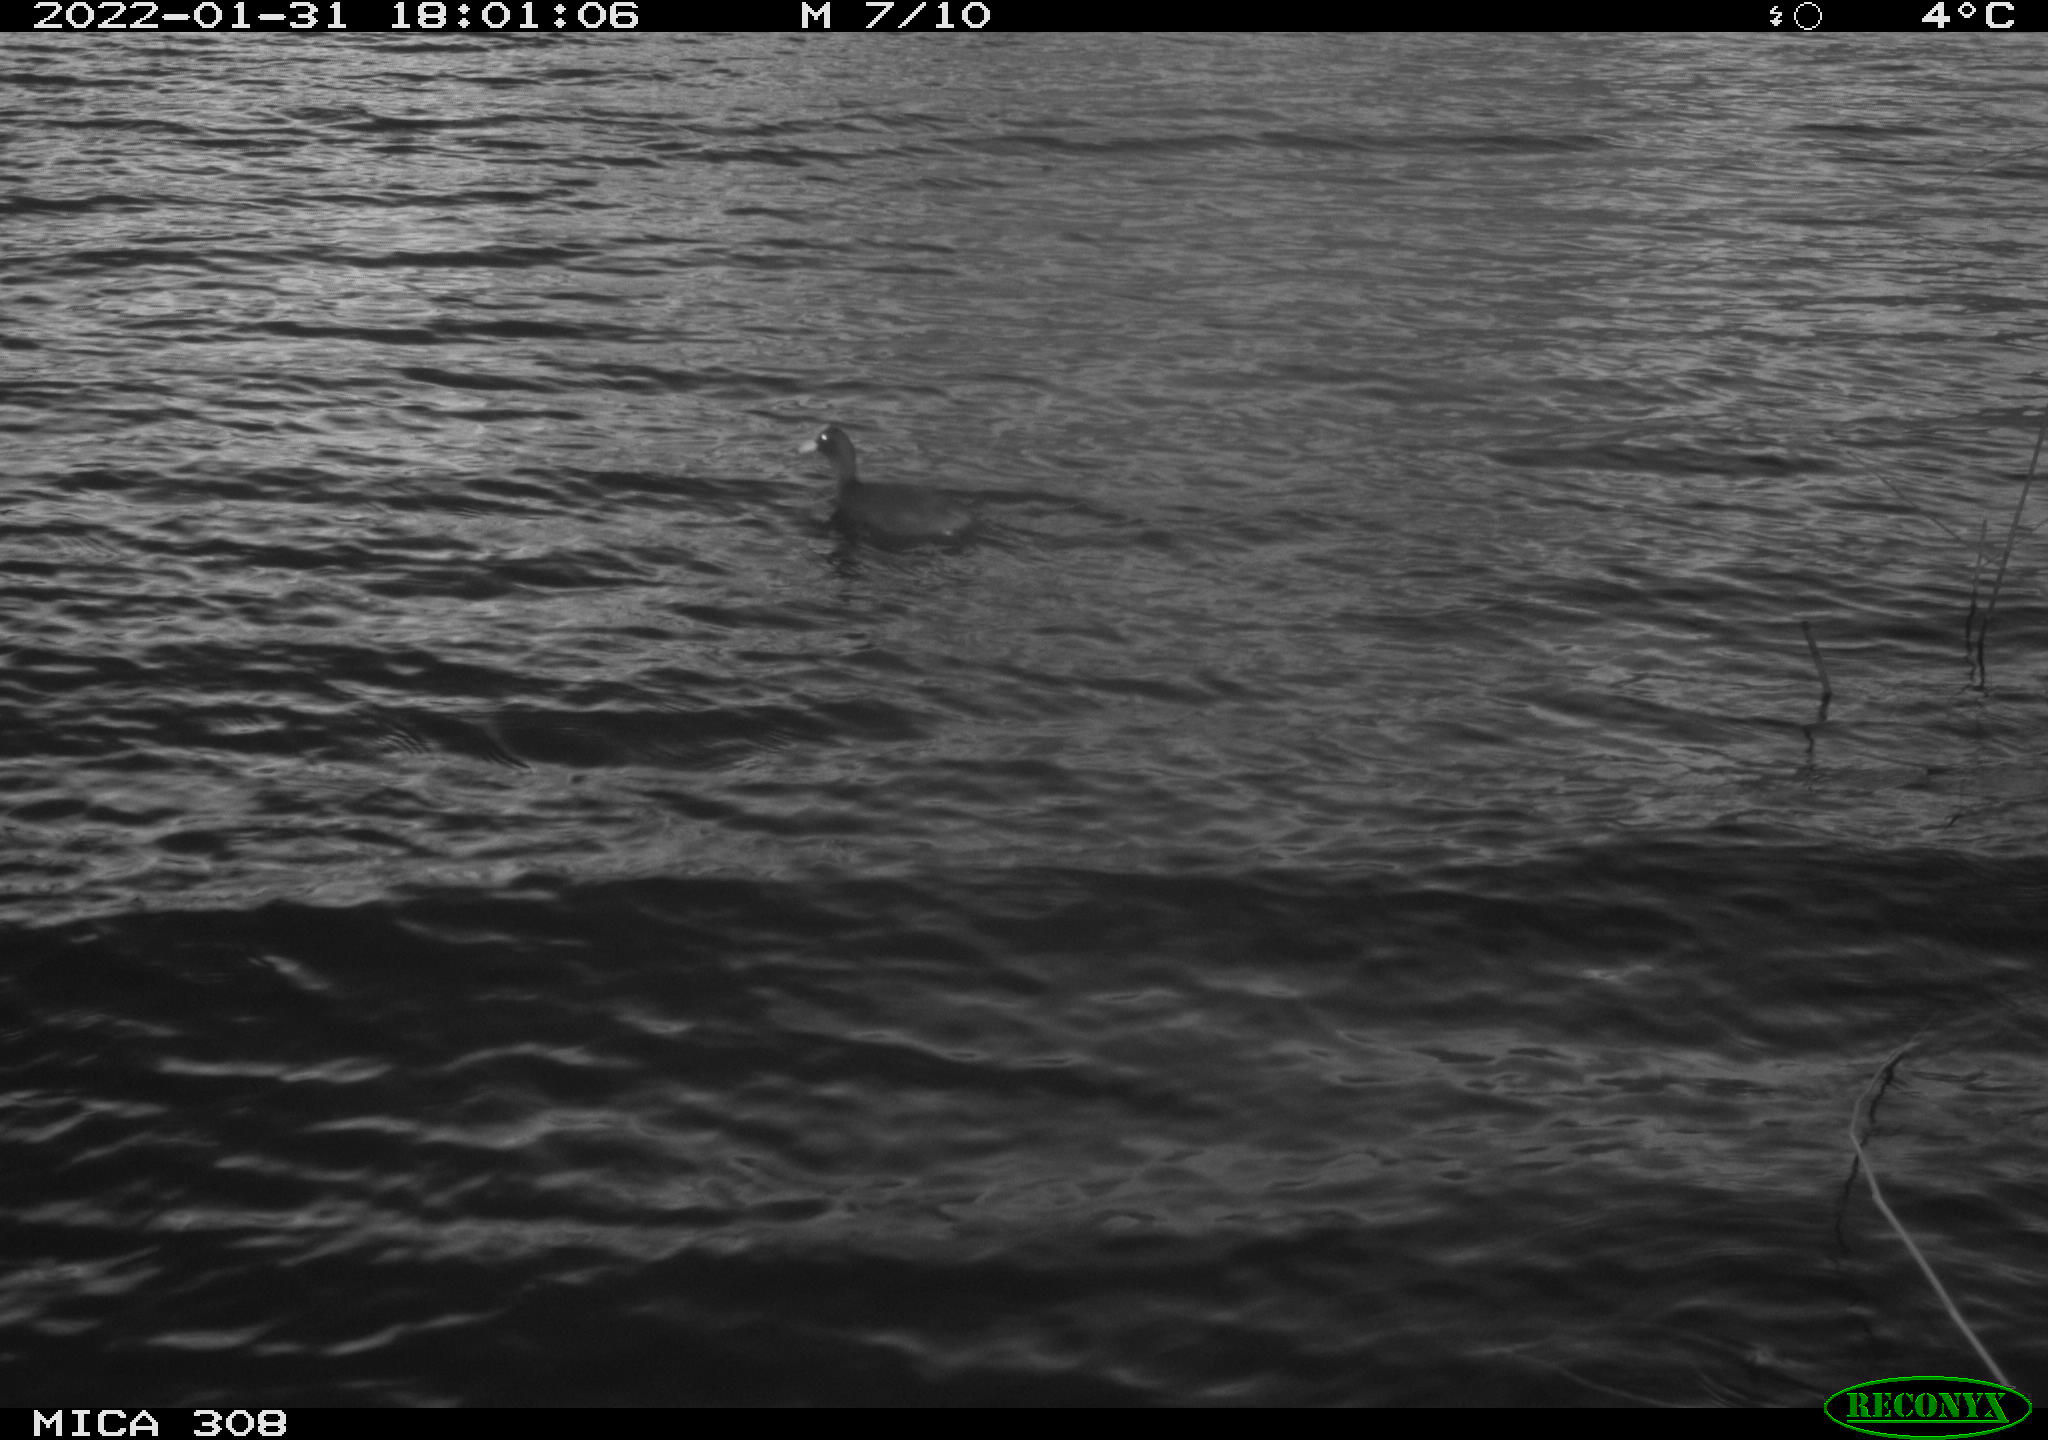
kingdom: Animalia
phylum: Chordata
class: Aves
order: Anseriformes
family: Anatidae
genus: Anas
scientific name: Anas
